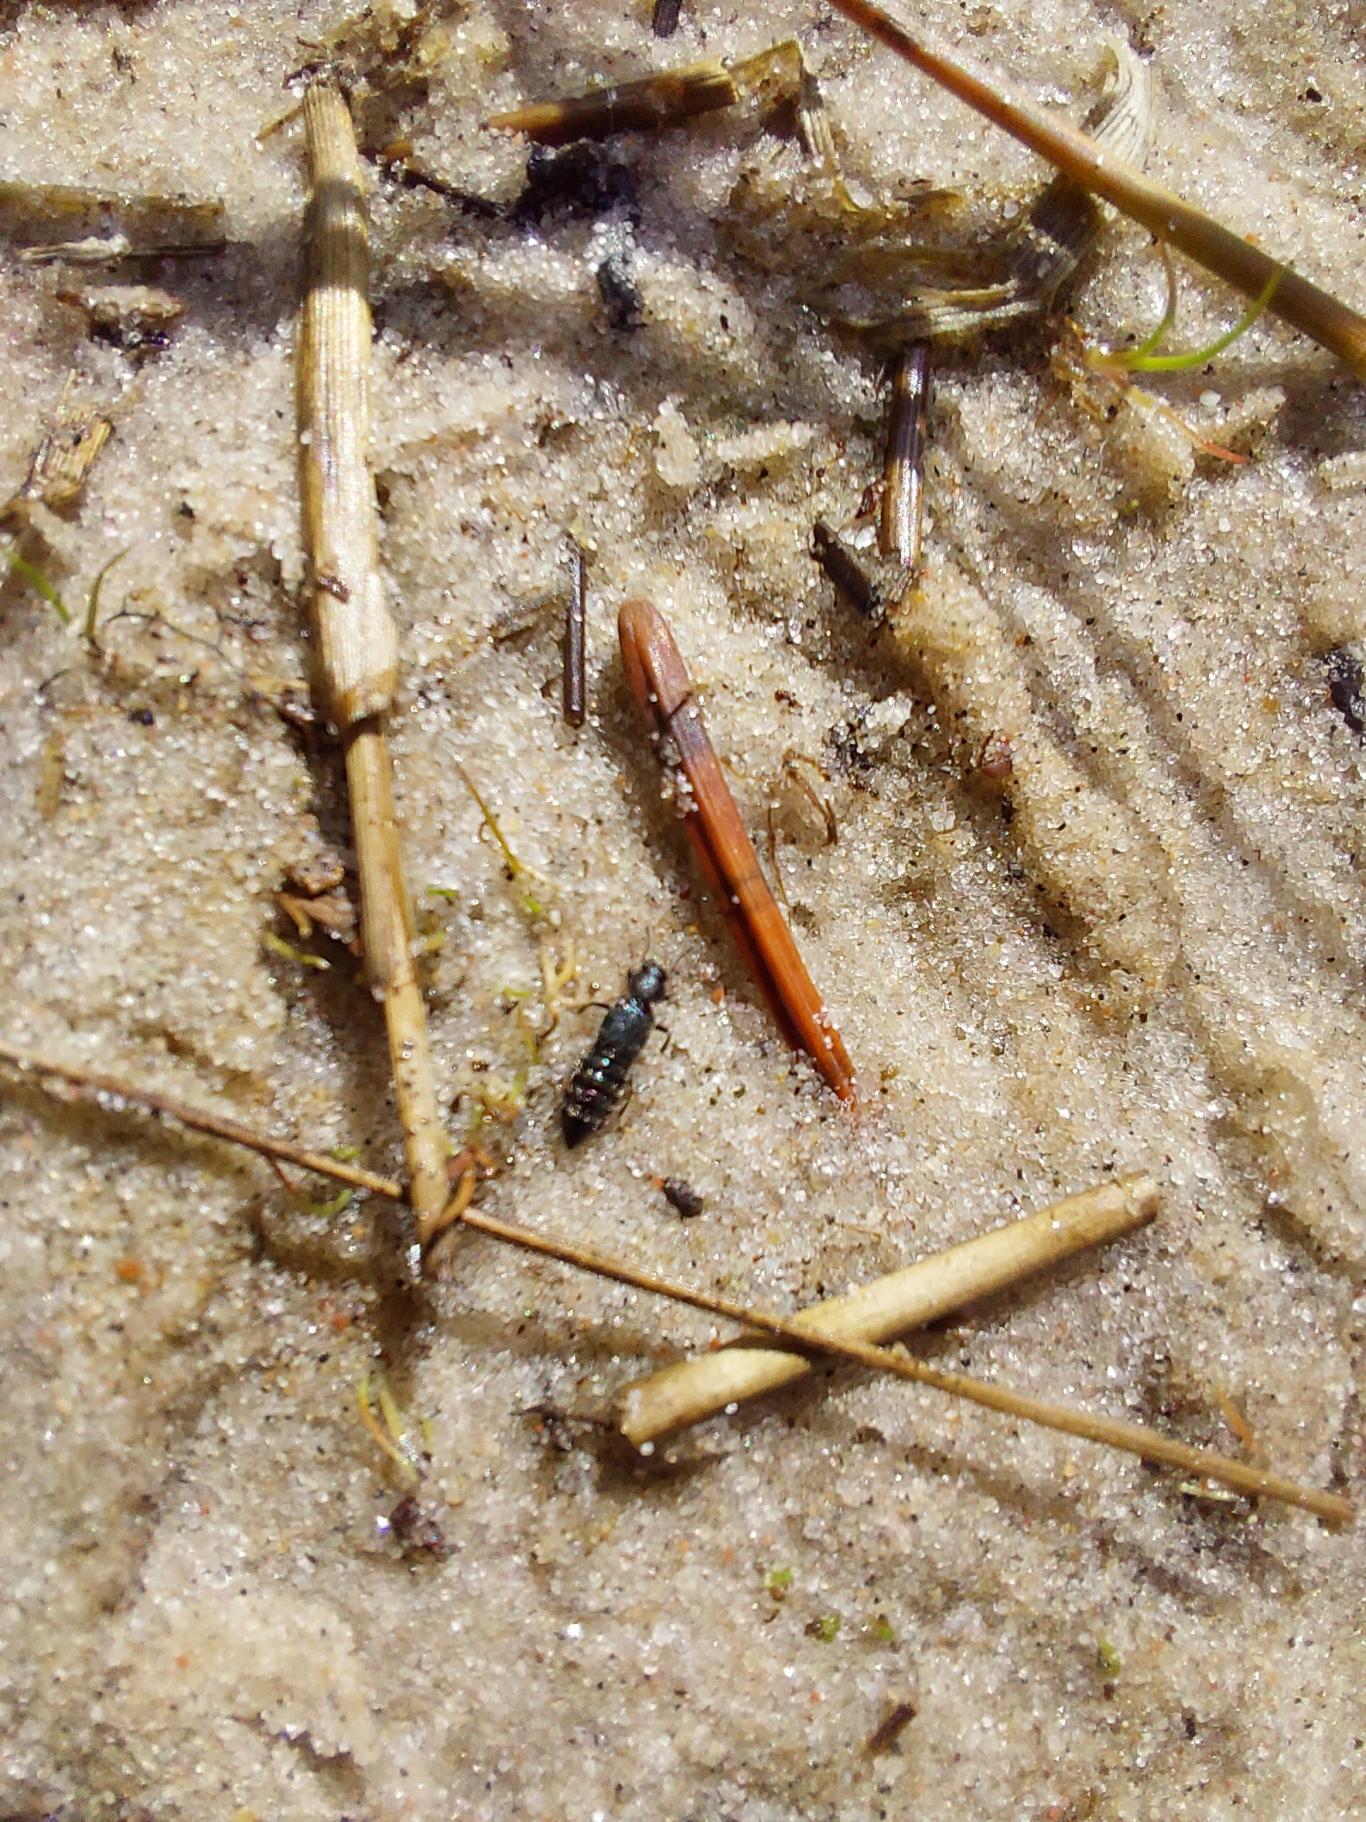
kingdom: Animalia
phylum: Arthropoda
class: Insecta
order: Coleoptera
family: Staphylinidae
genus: Bledius
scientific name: Bledius talpa
